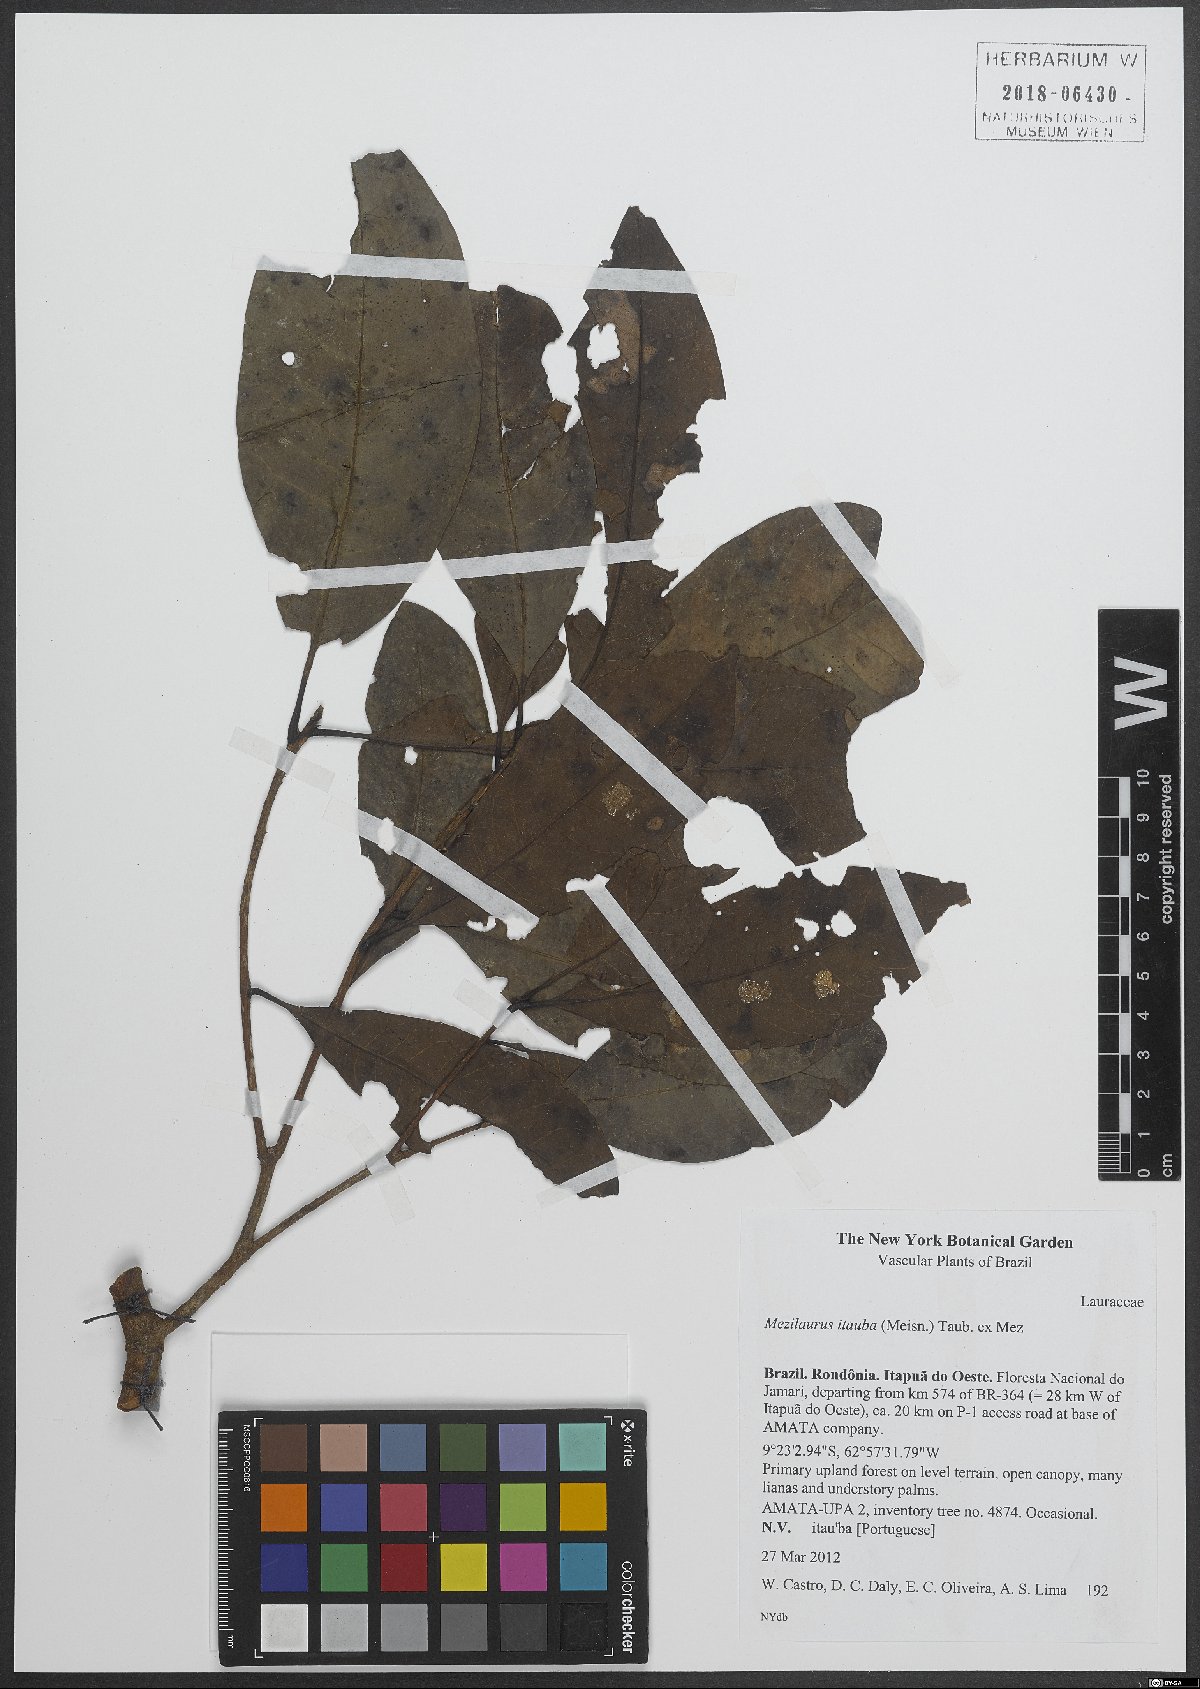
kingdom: Plantae
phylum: Tracheophyta
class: Magnoliopsida
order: Laurales
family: Lauraceae
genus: Mezilaurus
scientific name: Mezilaurus ita-uba
